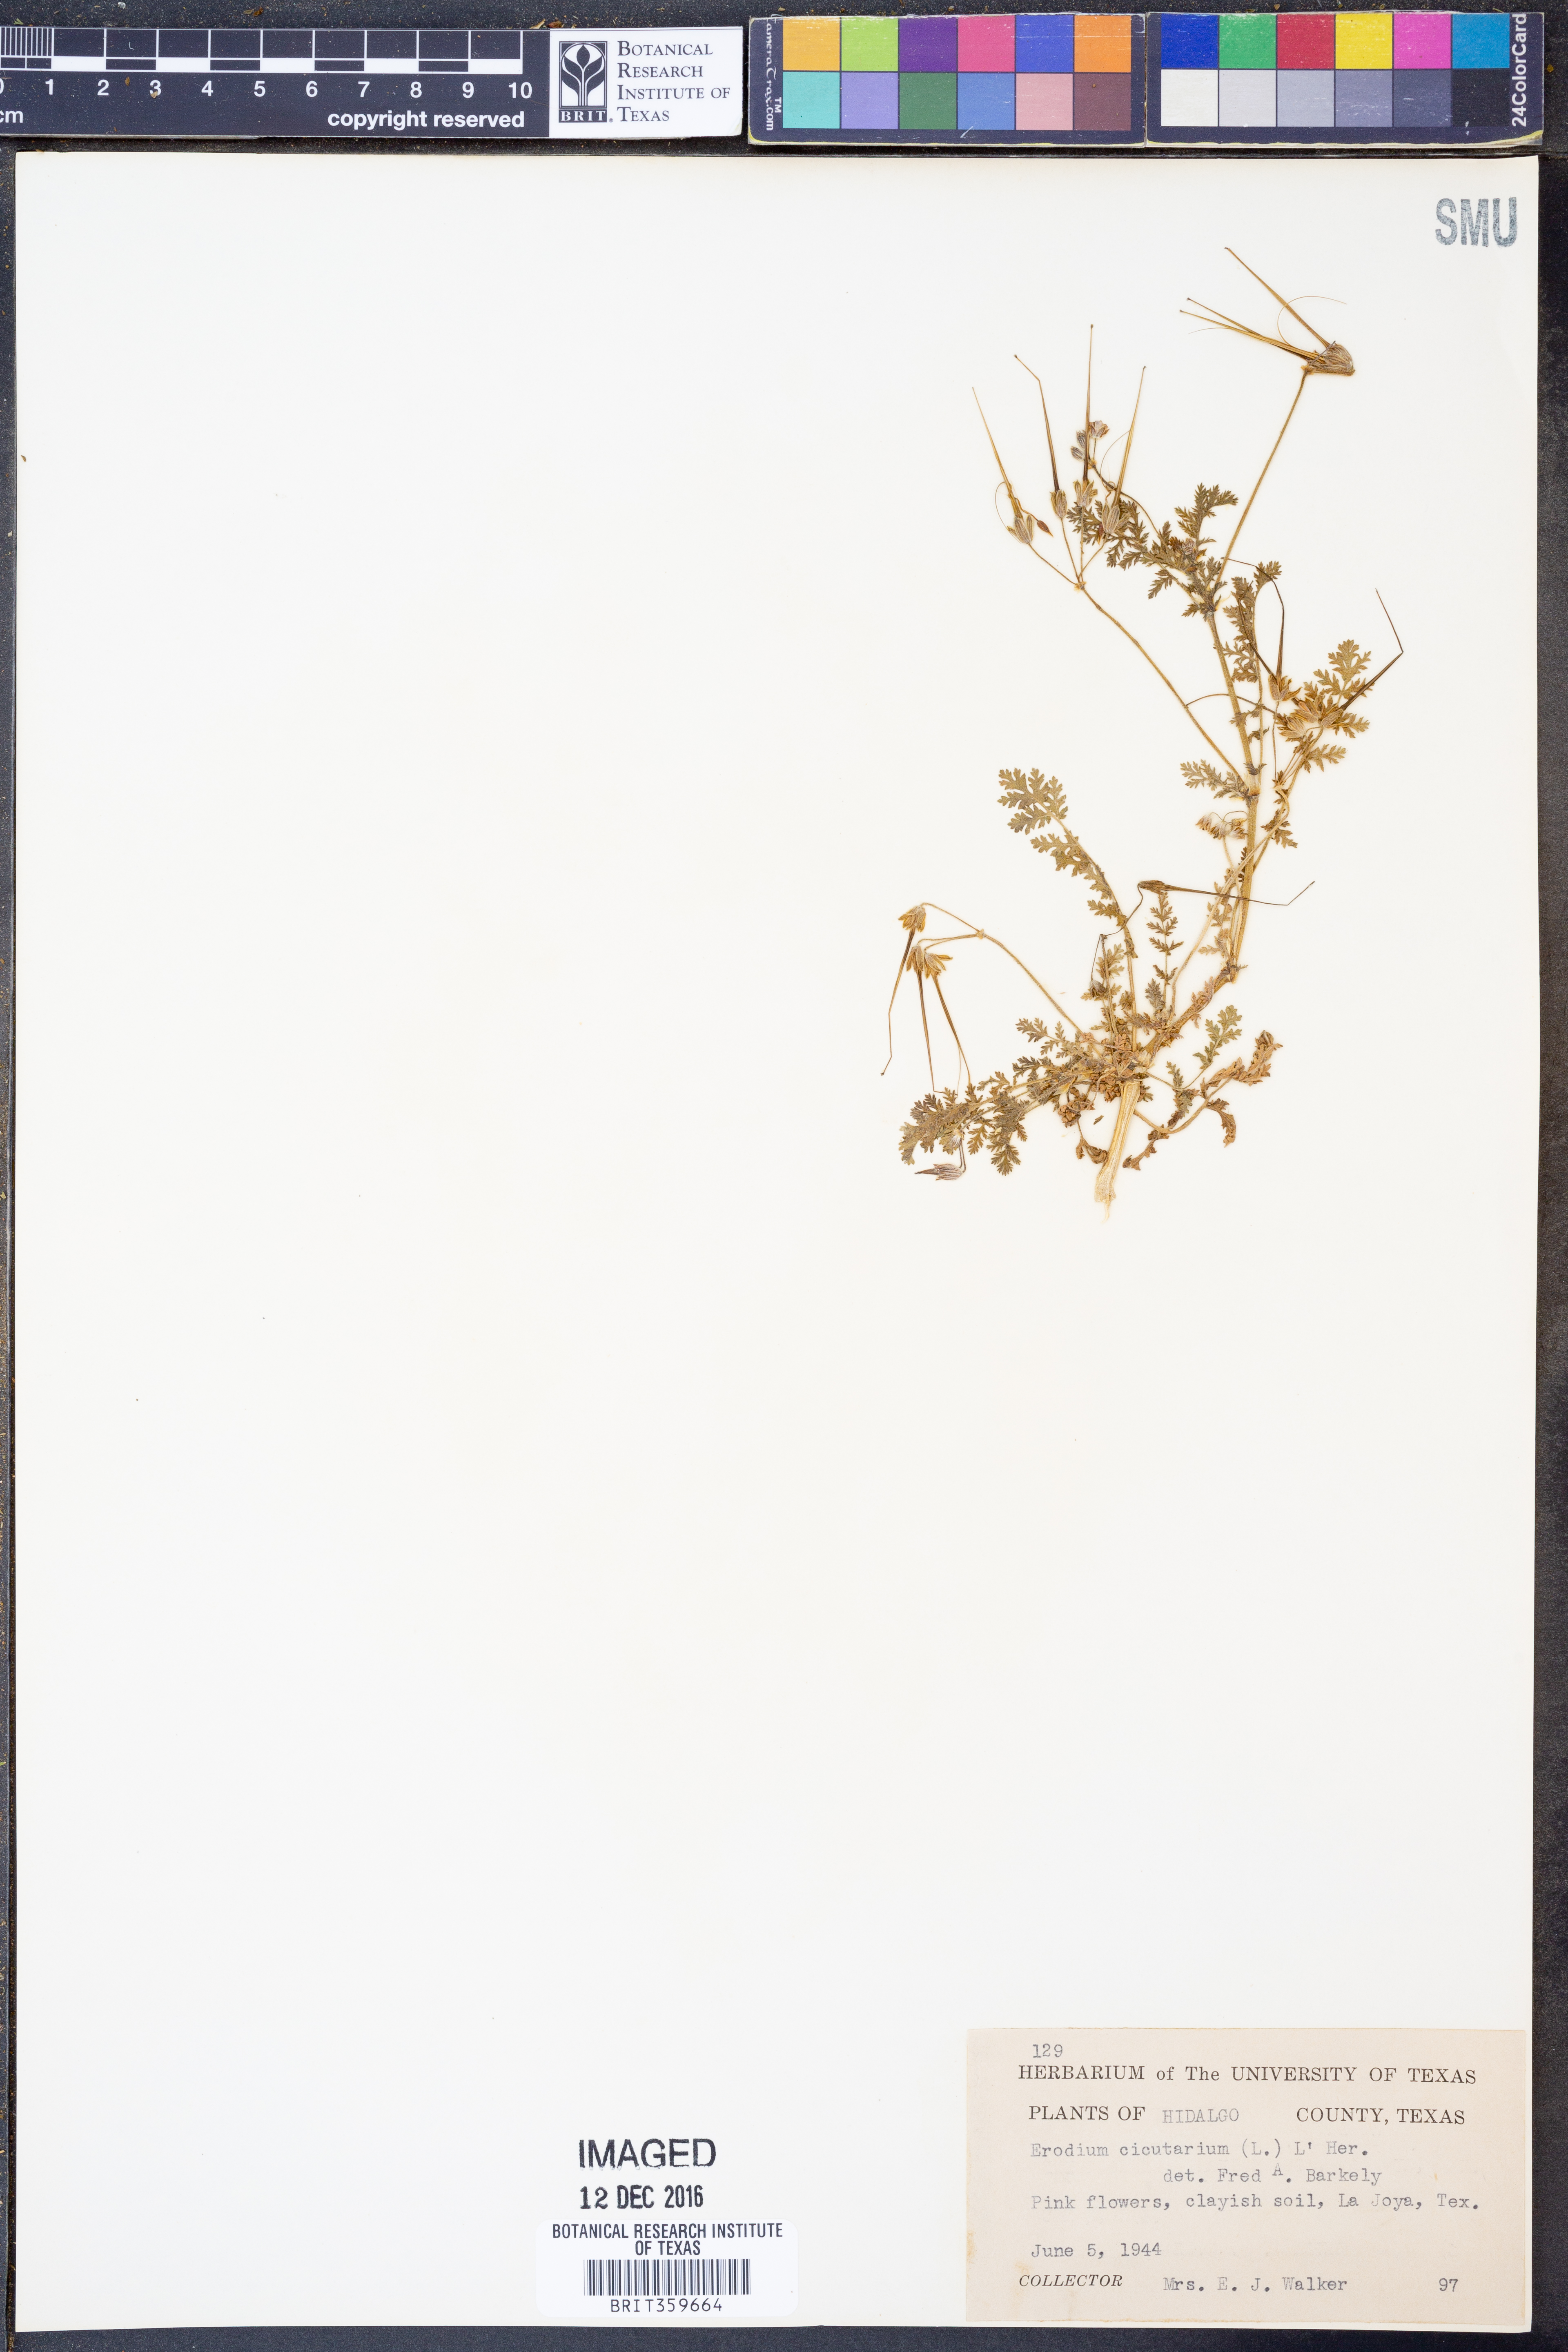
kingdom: Plantae
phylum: Tracheophyta
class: Magnoliopsida
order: Geraniales
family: Geraniaceae
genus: Erodium
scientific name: Erodium cicutarium
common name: Common stork's-bill
